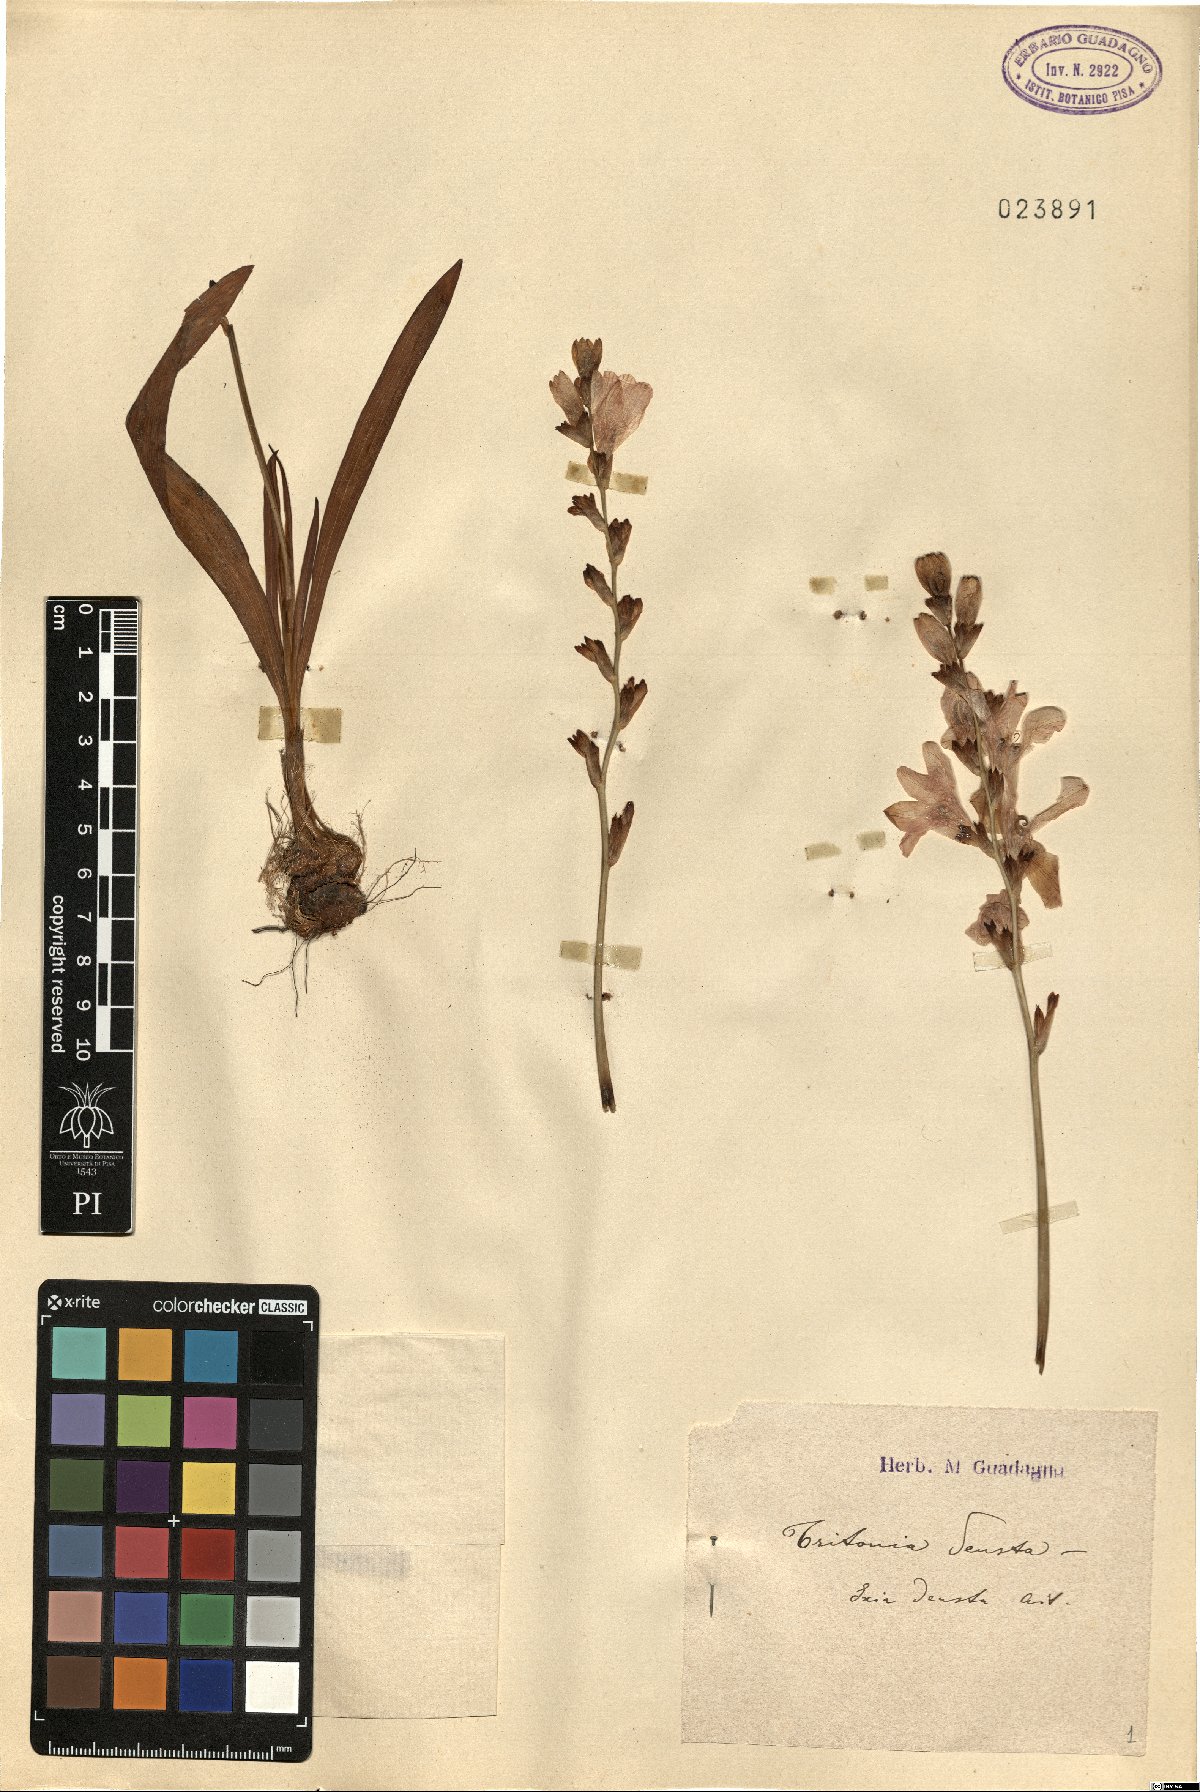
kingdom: Plantae
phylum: Tracheophyta
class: Liliopsida
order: Asparagales
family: Iridaceae
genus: Tritonia
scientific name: Tritonia deusta
